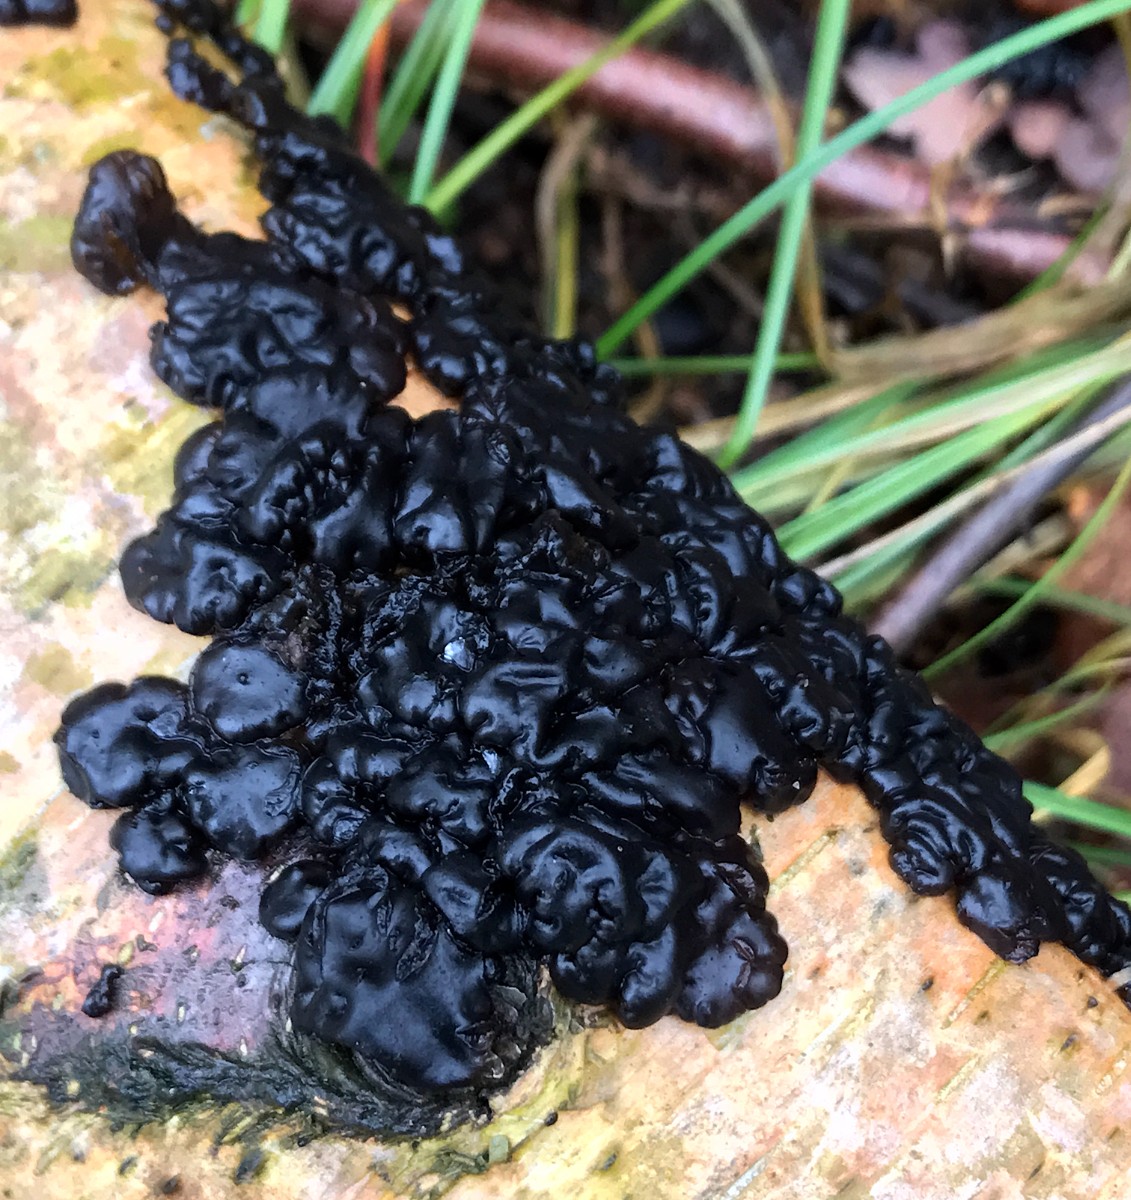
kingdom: Fungi
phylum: Basidiomycota
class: Agaricomycetes
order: Auriculariales
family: Auriculariaceae
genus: Exidia
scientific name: Exidia nigricans
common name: almindelig bævretop
